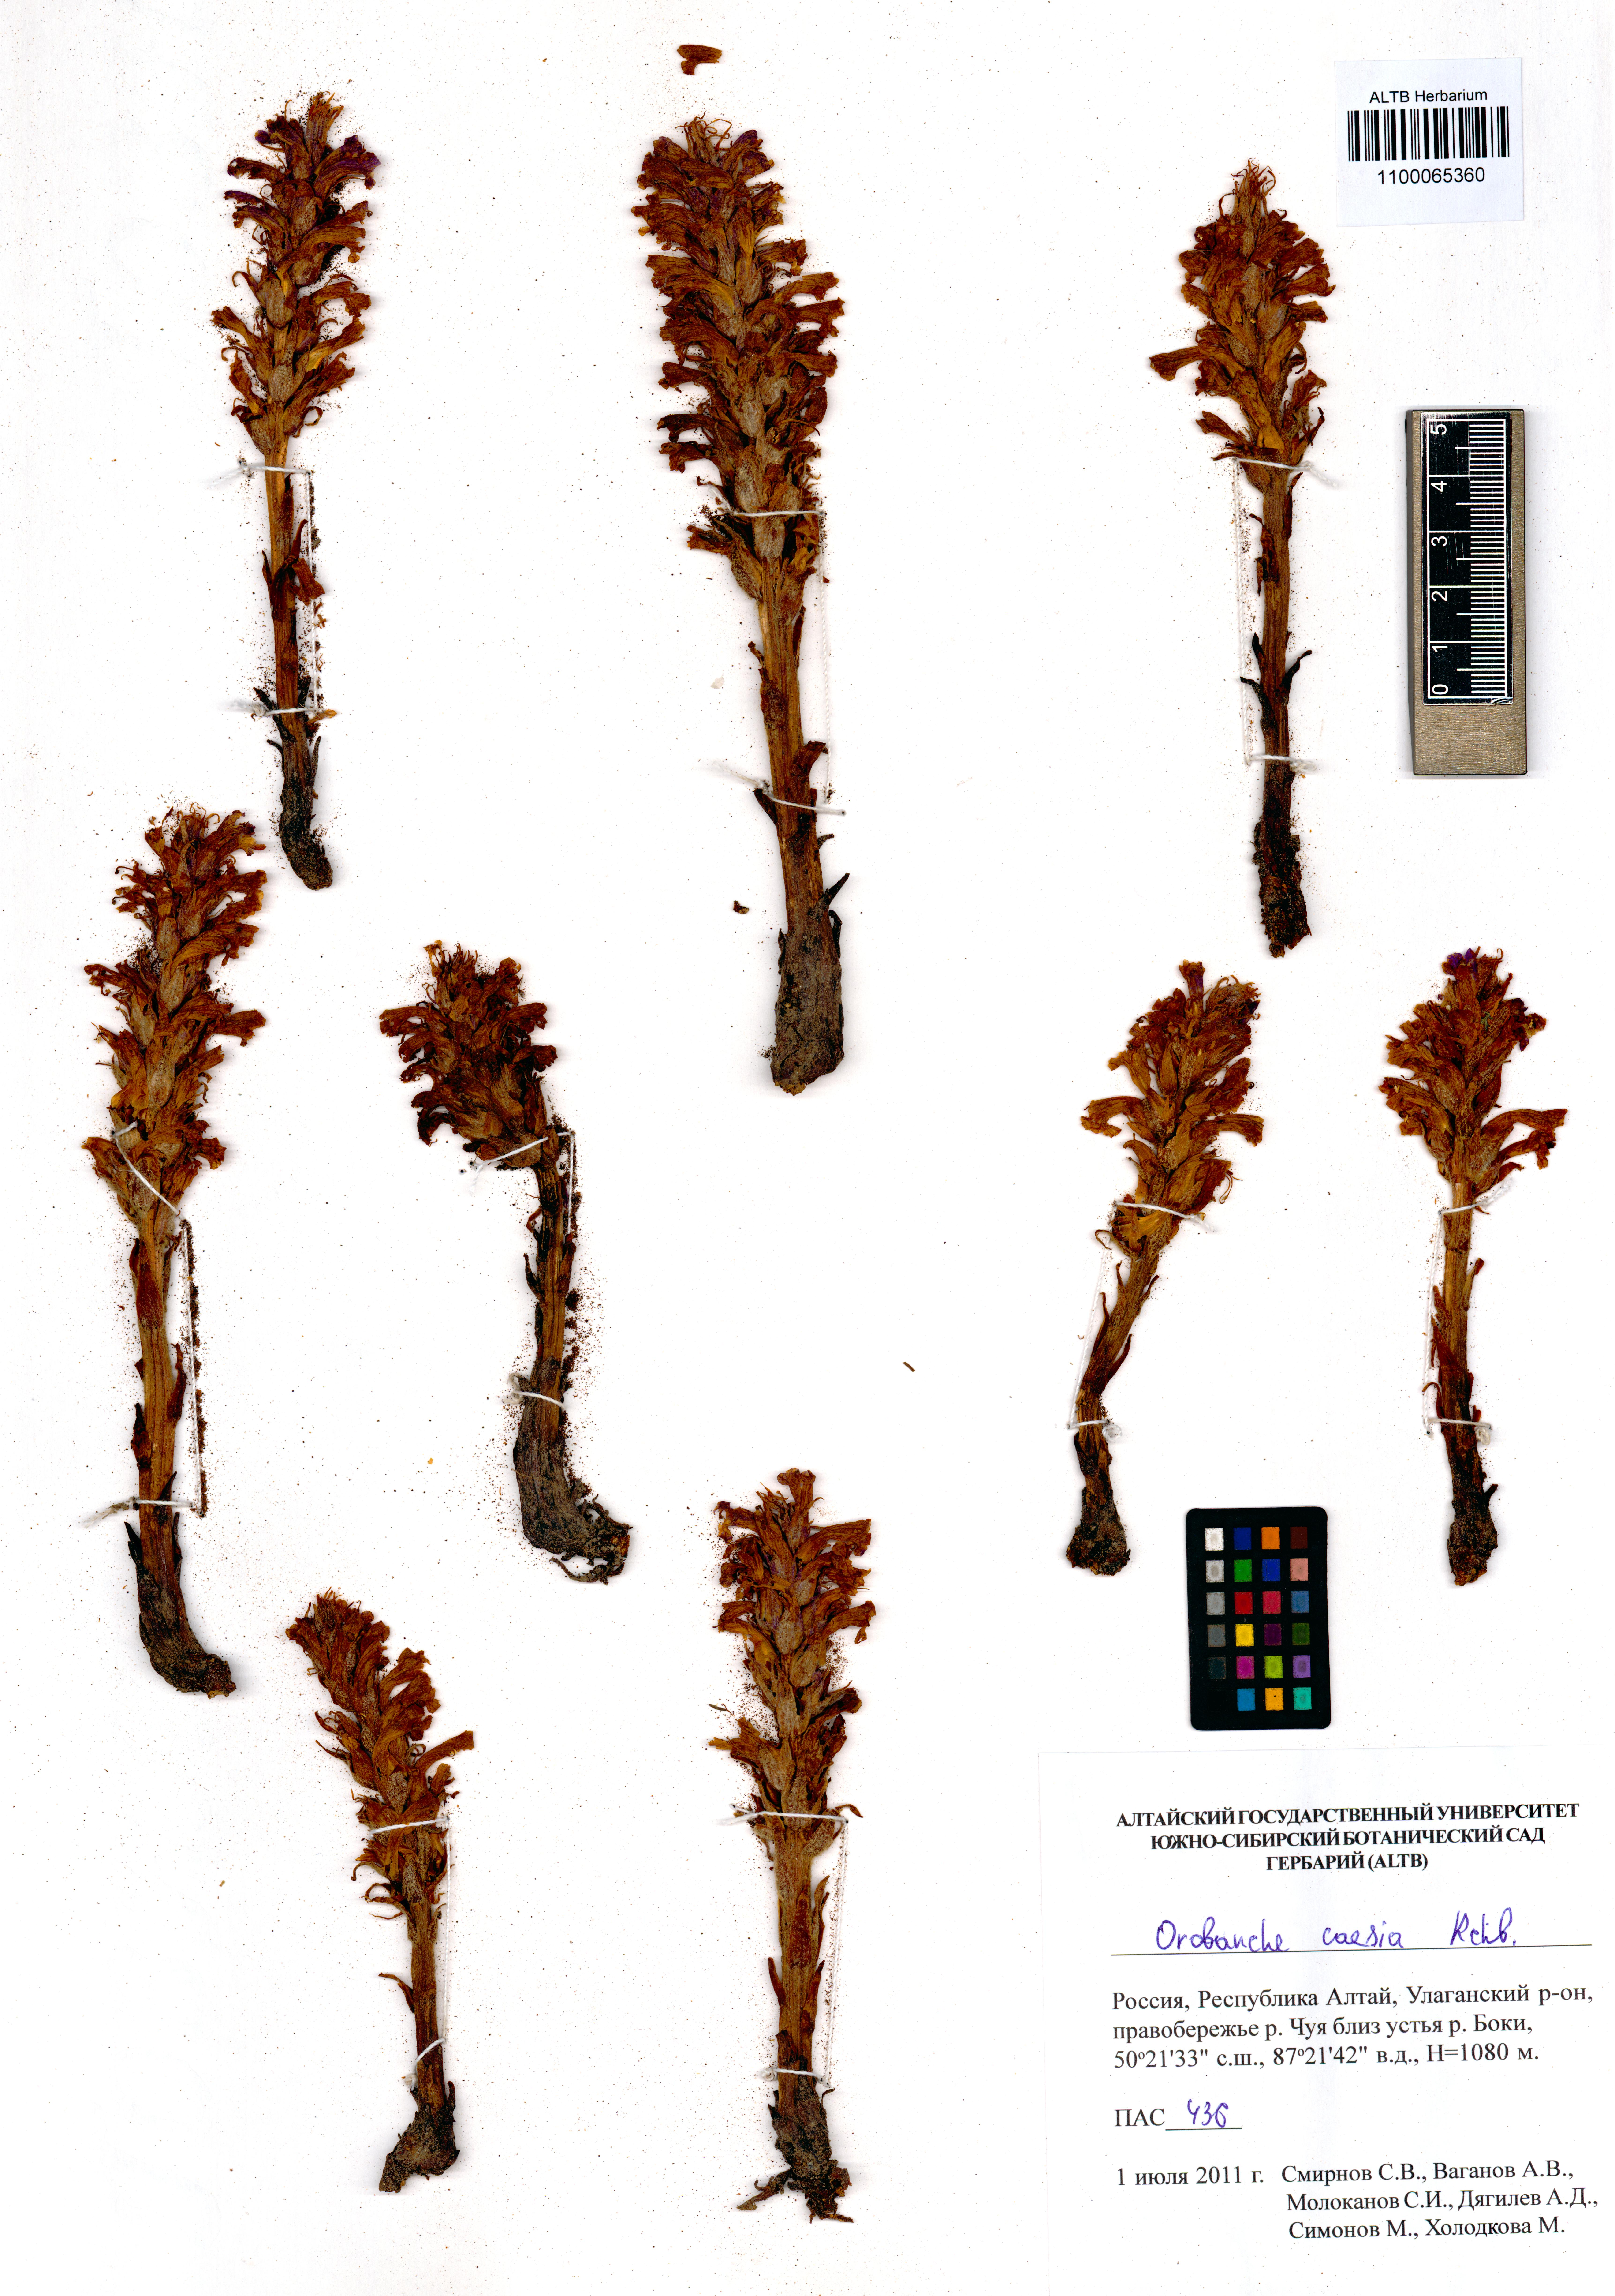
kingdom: Plantae
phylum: Tracheophyta
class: Magnoliopsida
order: Lamiales
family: Orobanchaceae
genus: Phelipanche
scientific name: Phelipanche caesia
